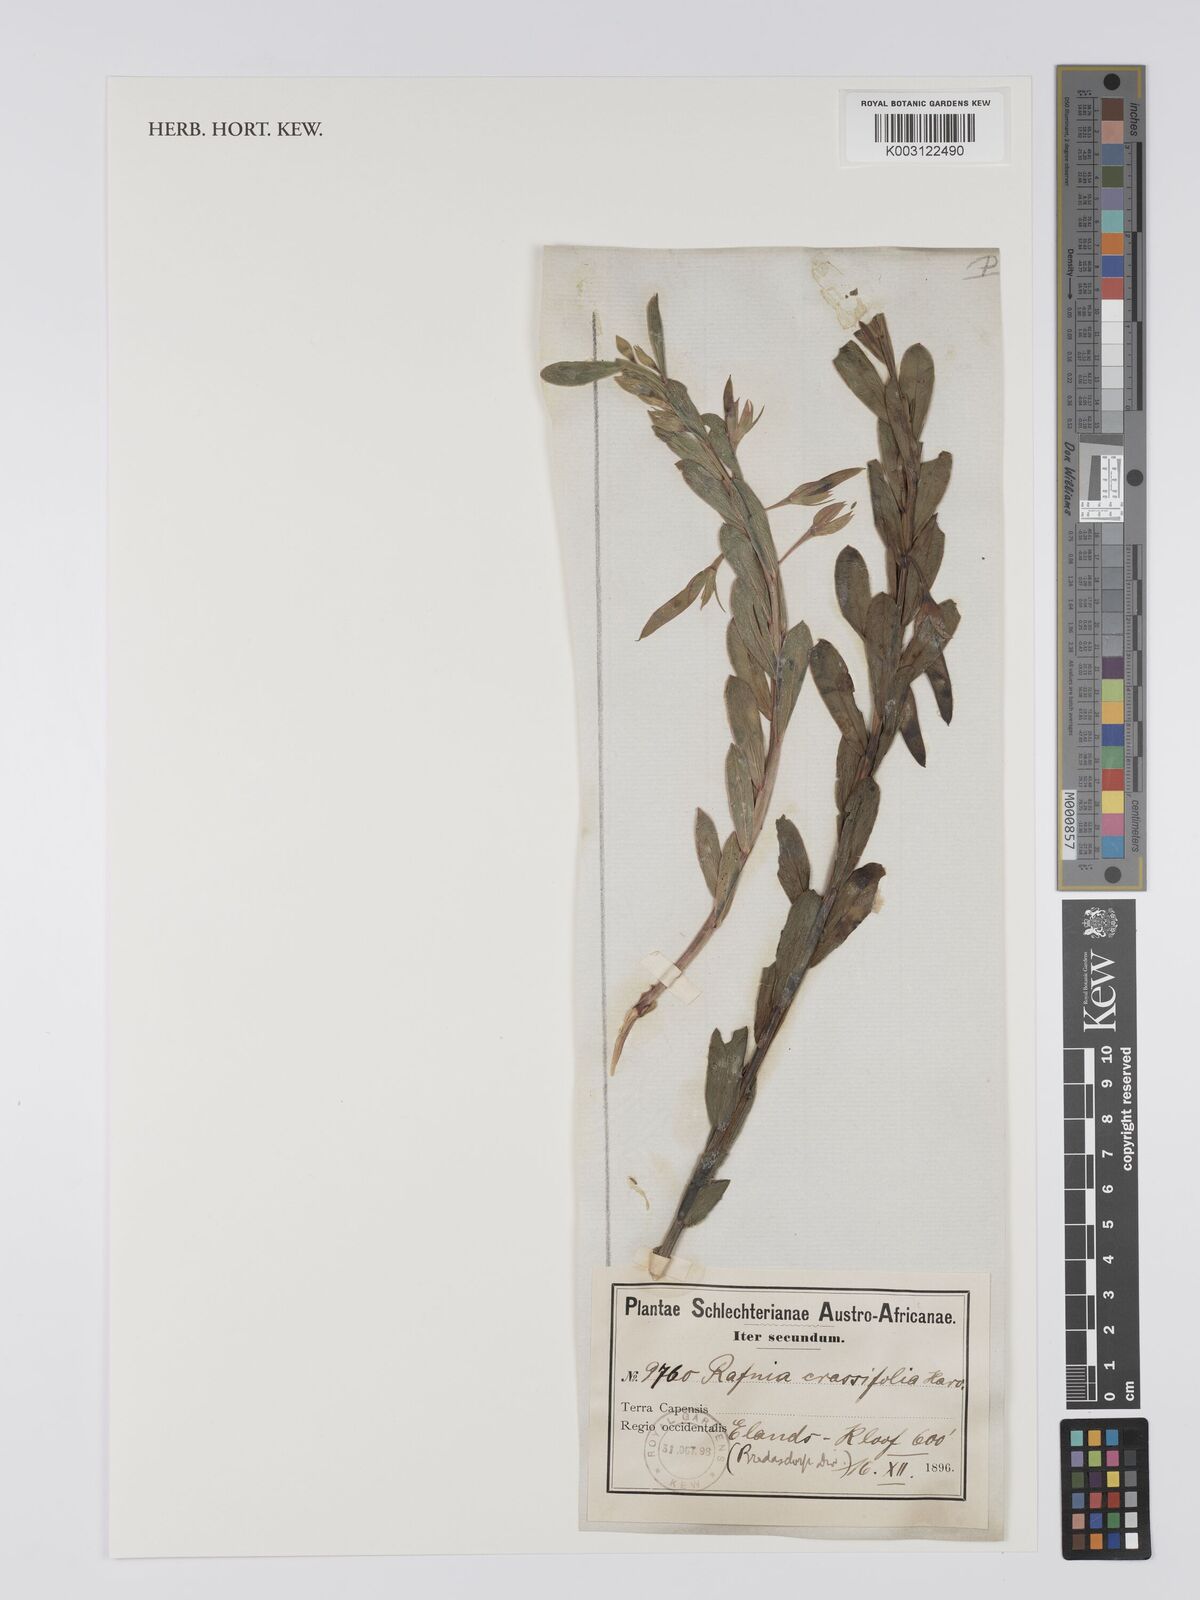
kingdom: Plantae
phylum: Tracheophyta
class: Magnoliopsida
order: Fabales
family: Fabaceae
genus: Rafnia
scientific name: Rafnia crassifolia
